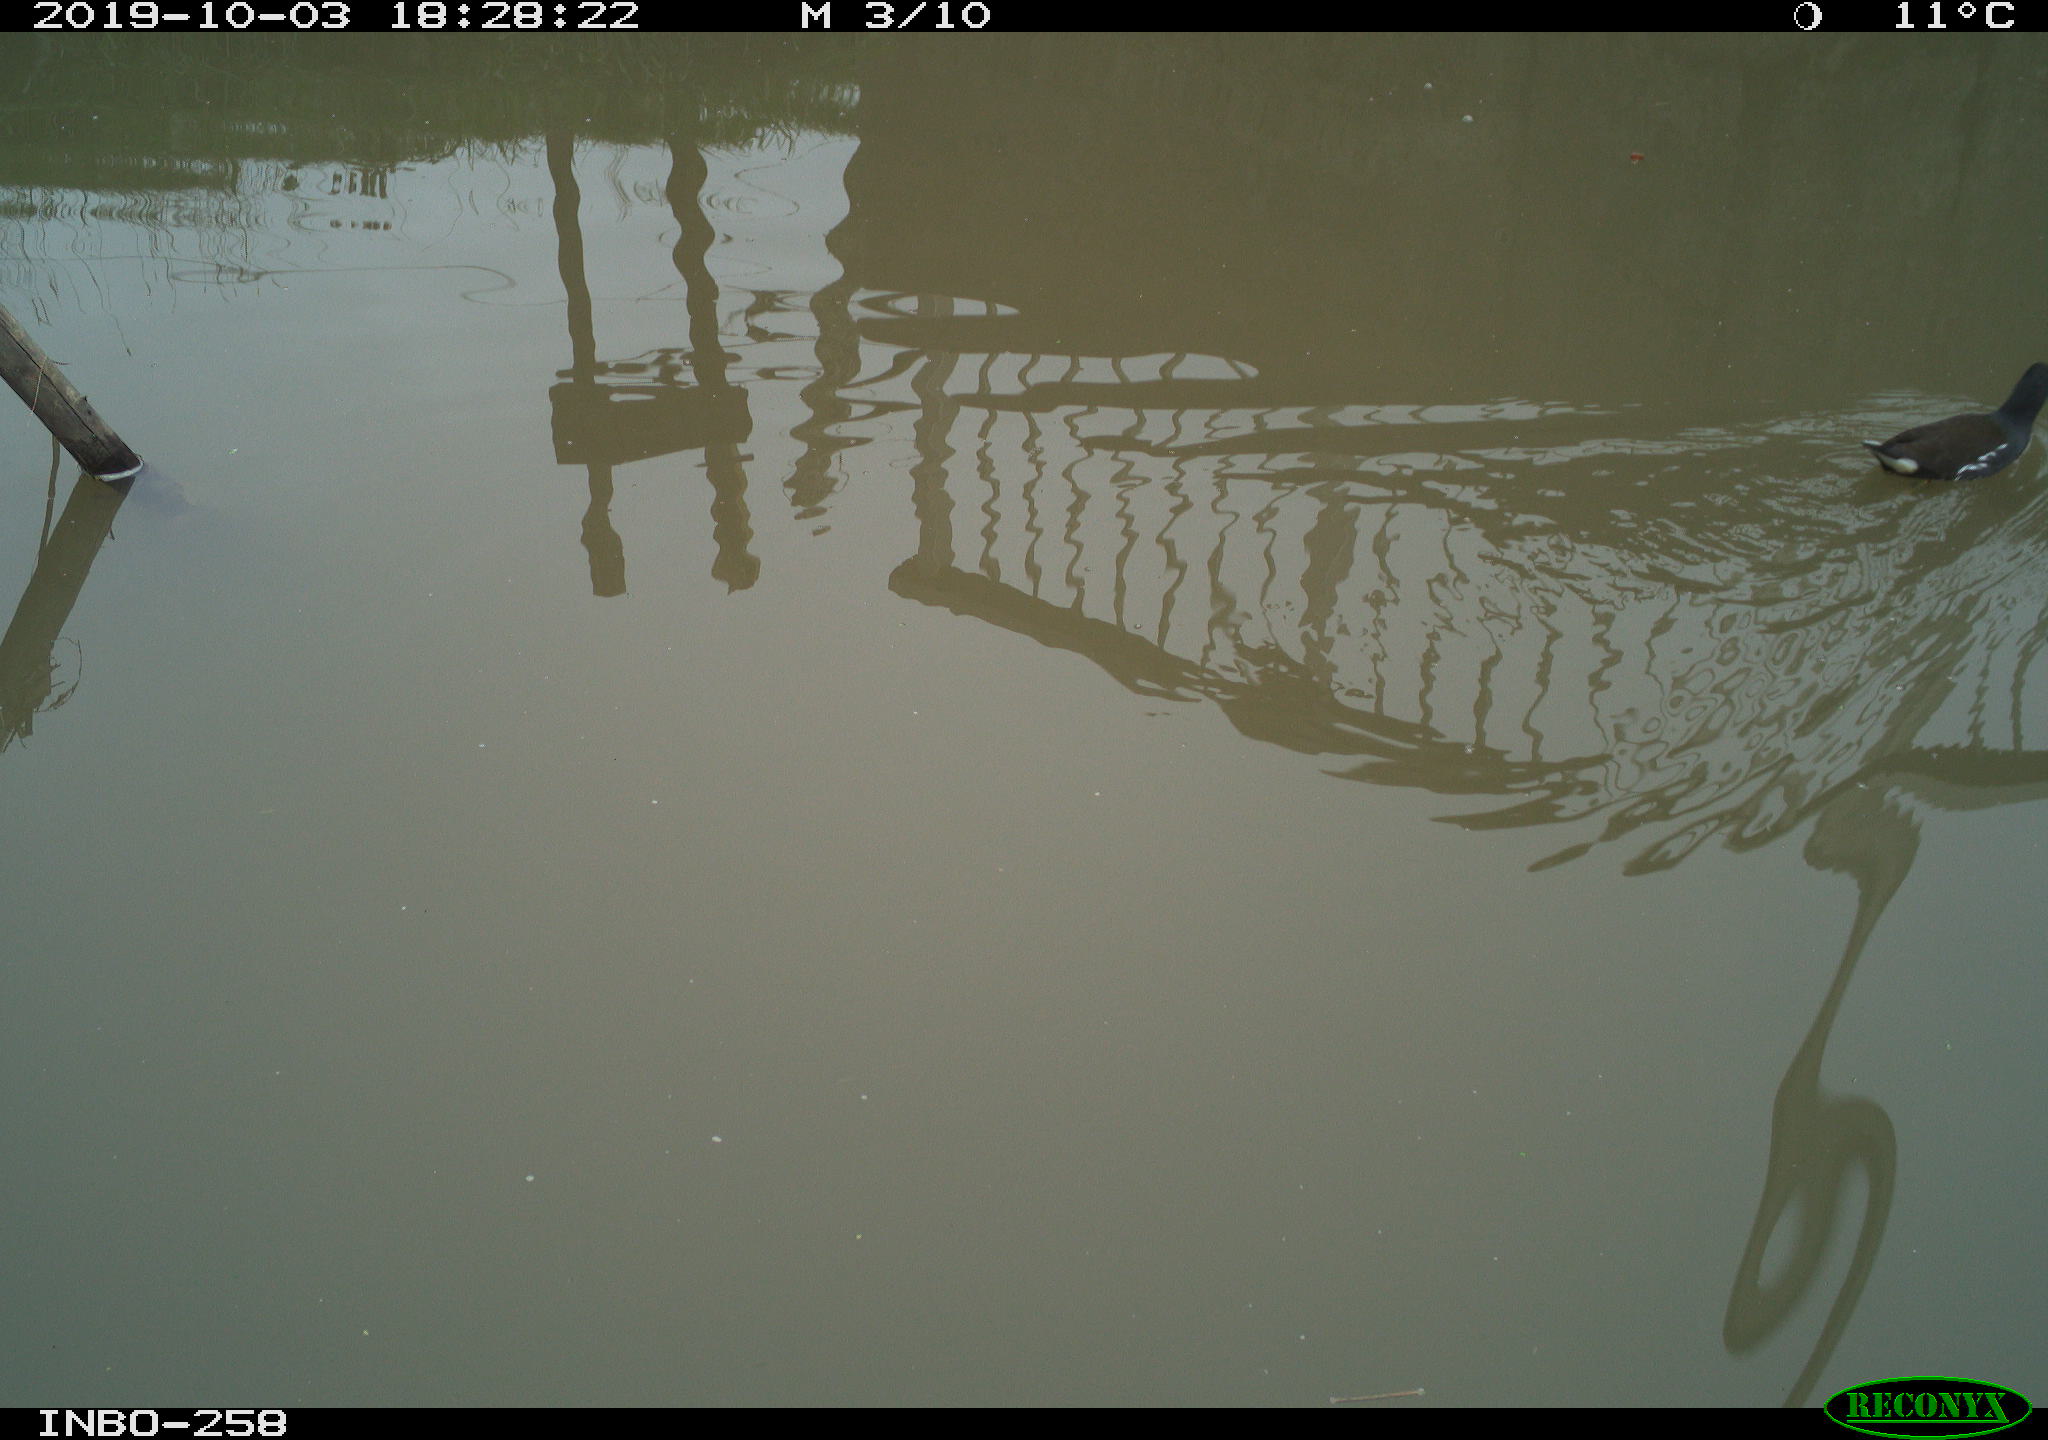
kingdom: Animalia
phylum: Chordata
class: Aves
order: Gruiformes
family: Rallidae
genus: Gallinula
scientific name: Gallinula chloropus
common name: Common moorhen
